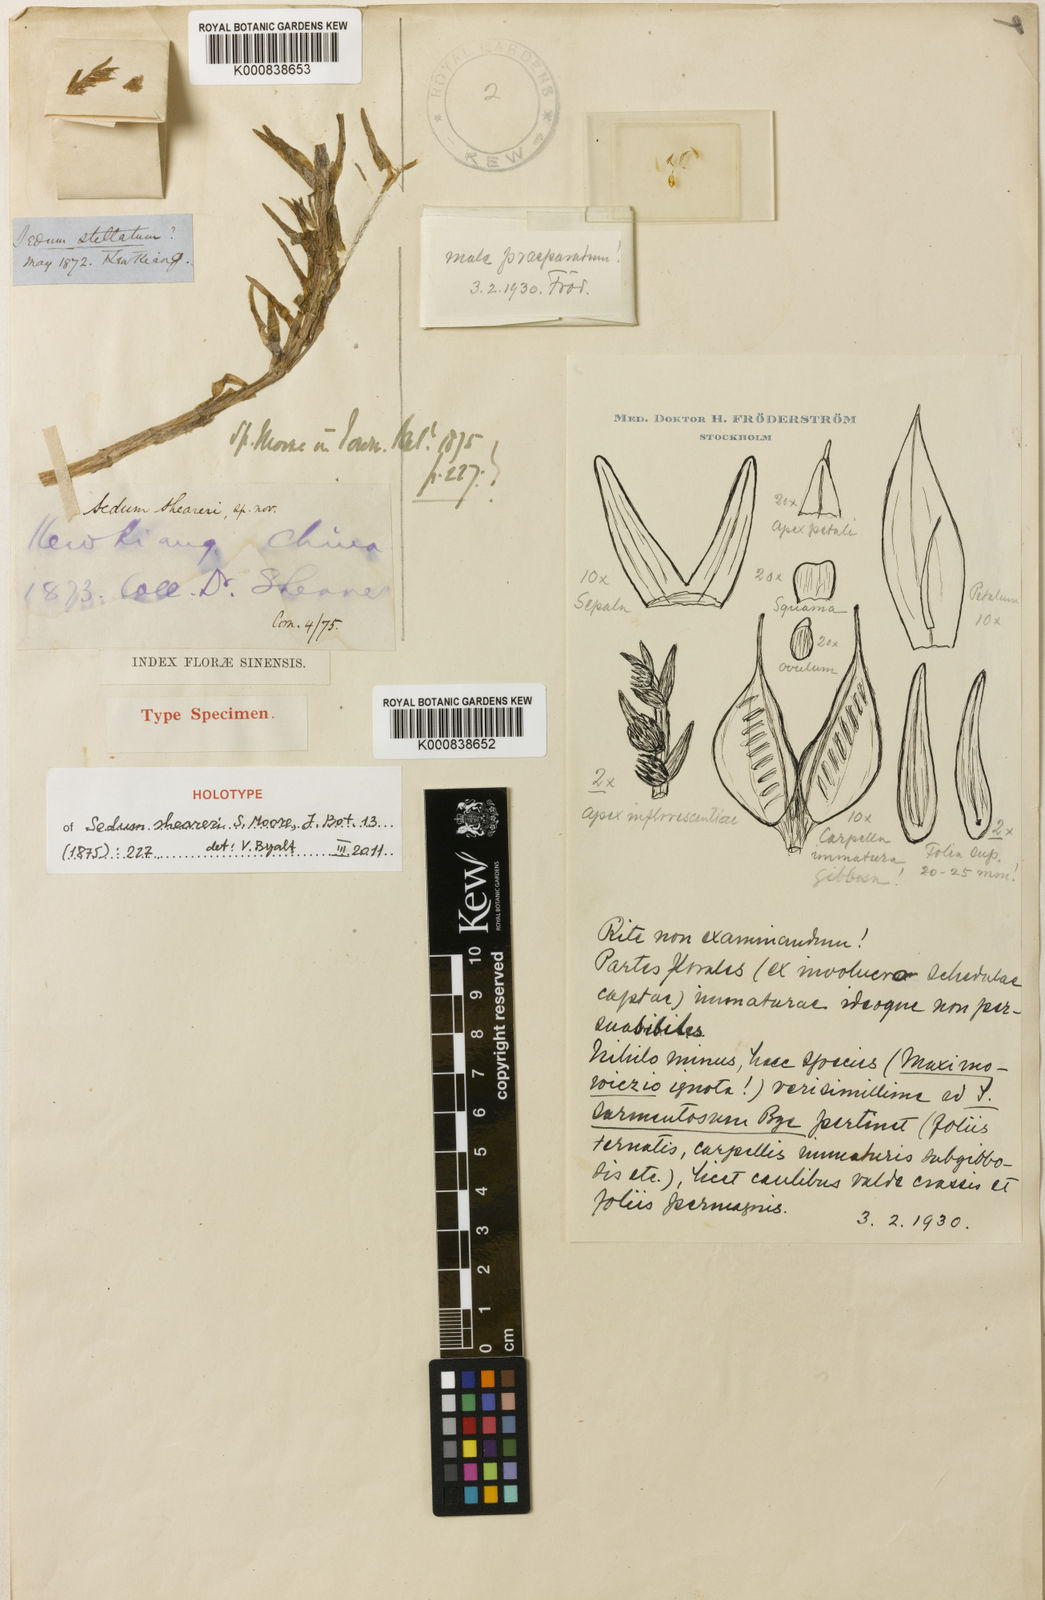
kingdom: Plantae
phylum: Tracheophyta
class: Magnoliopsida
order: Saxifragales
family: Crassulaceae
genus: Sedum
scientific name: Sedum sarmentosum
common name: Stringy stonecrop
